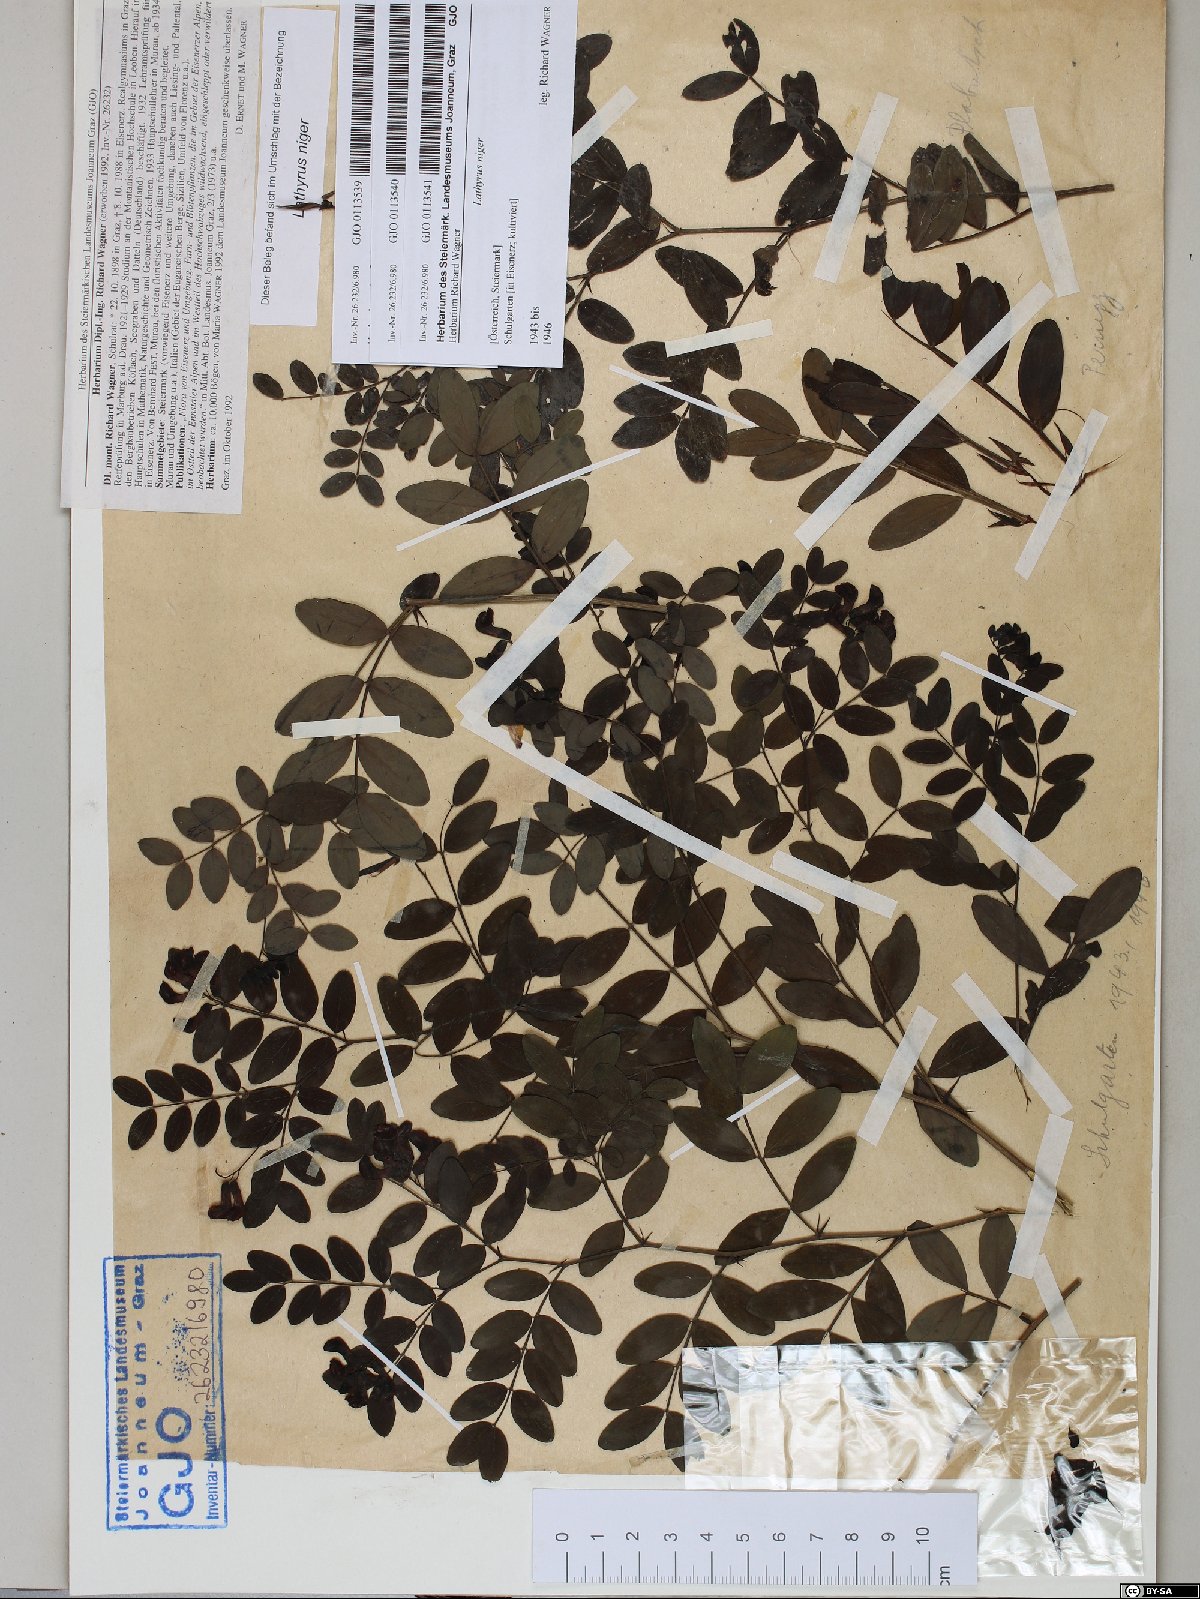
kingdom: Plantae
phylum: Tracheophyta
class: Magnoliopsida
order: Fabales
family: Fabaceae
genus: Lathyrus
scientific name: Lathyrus niger
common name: Black pea
